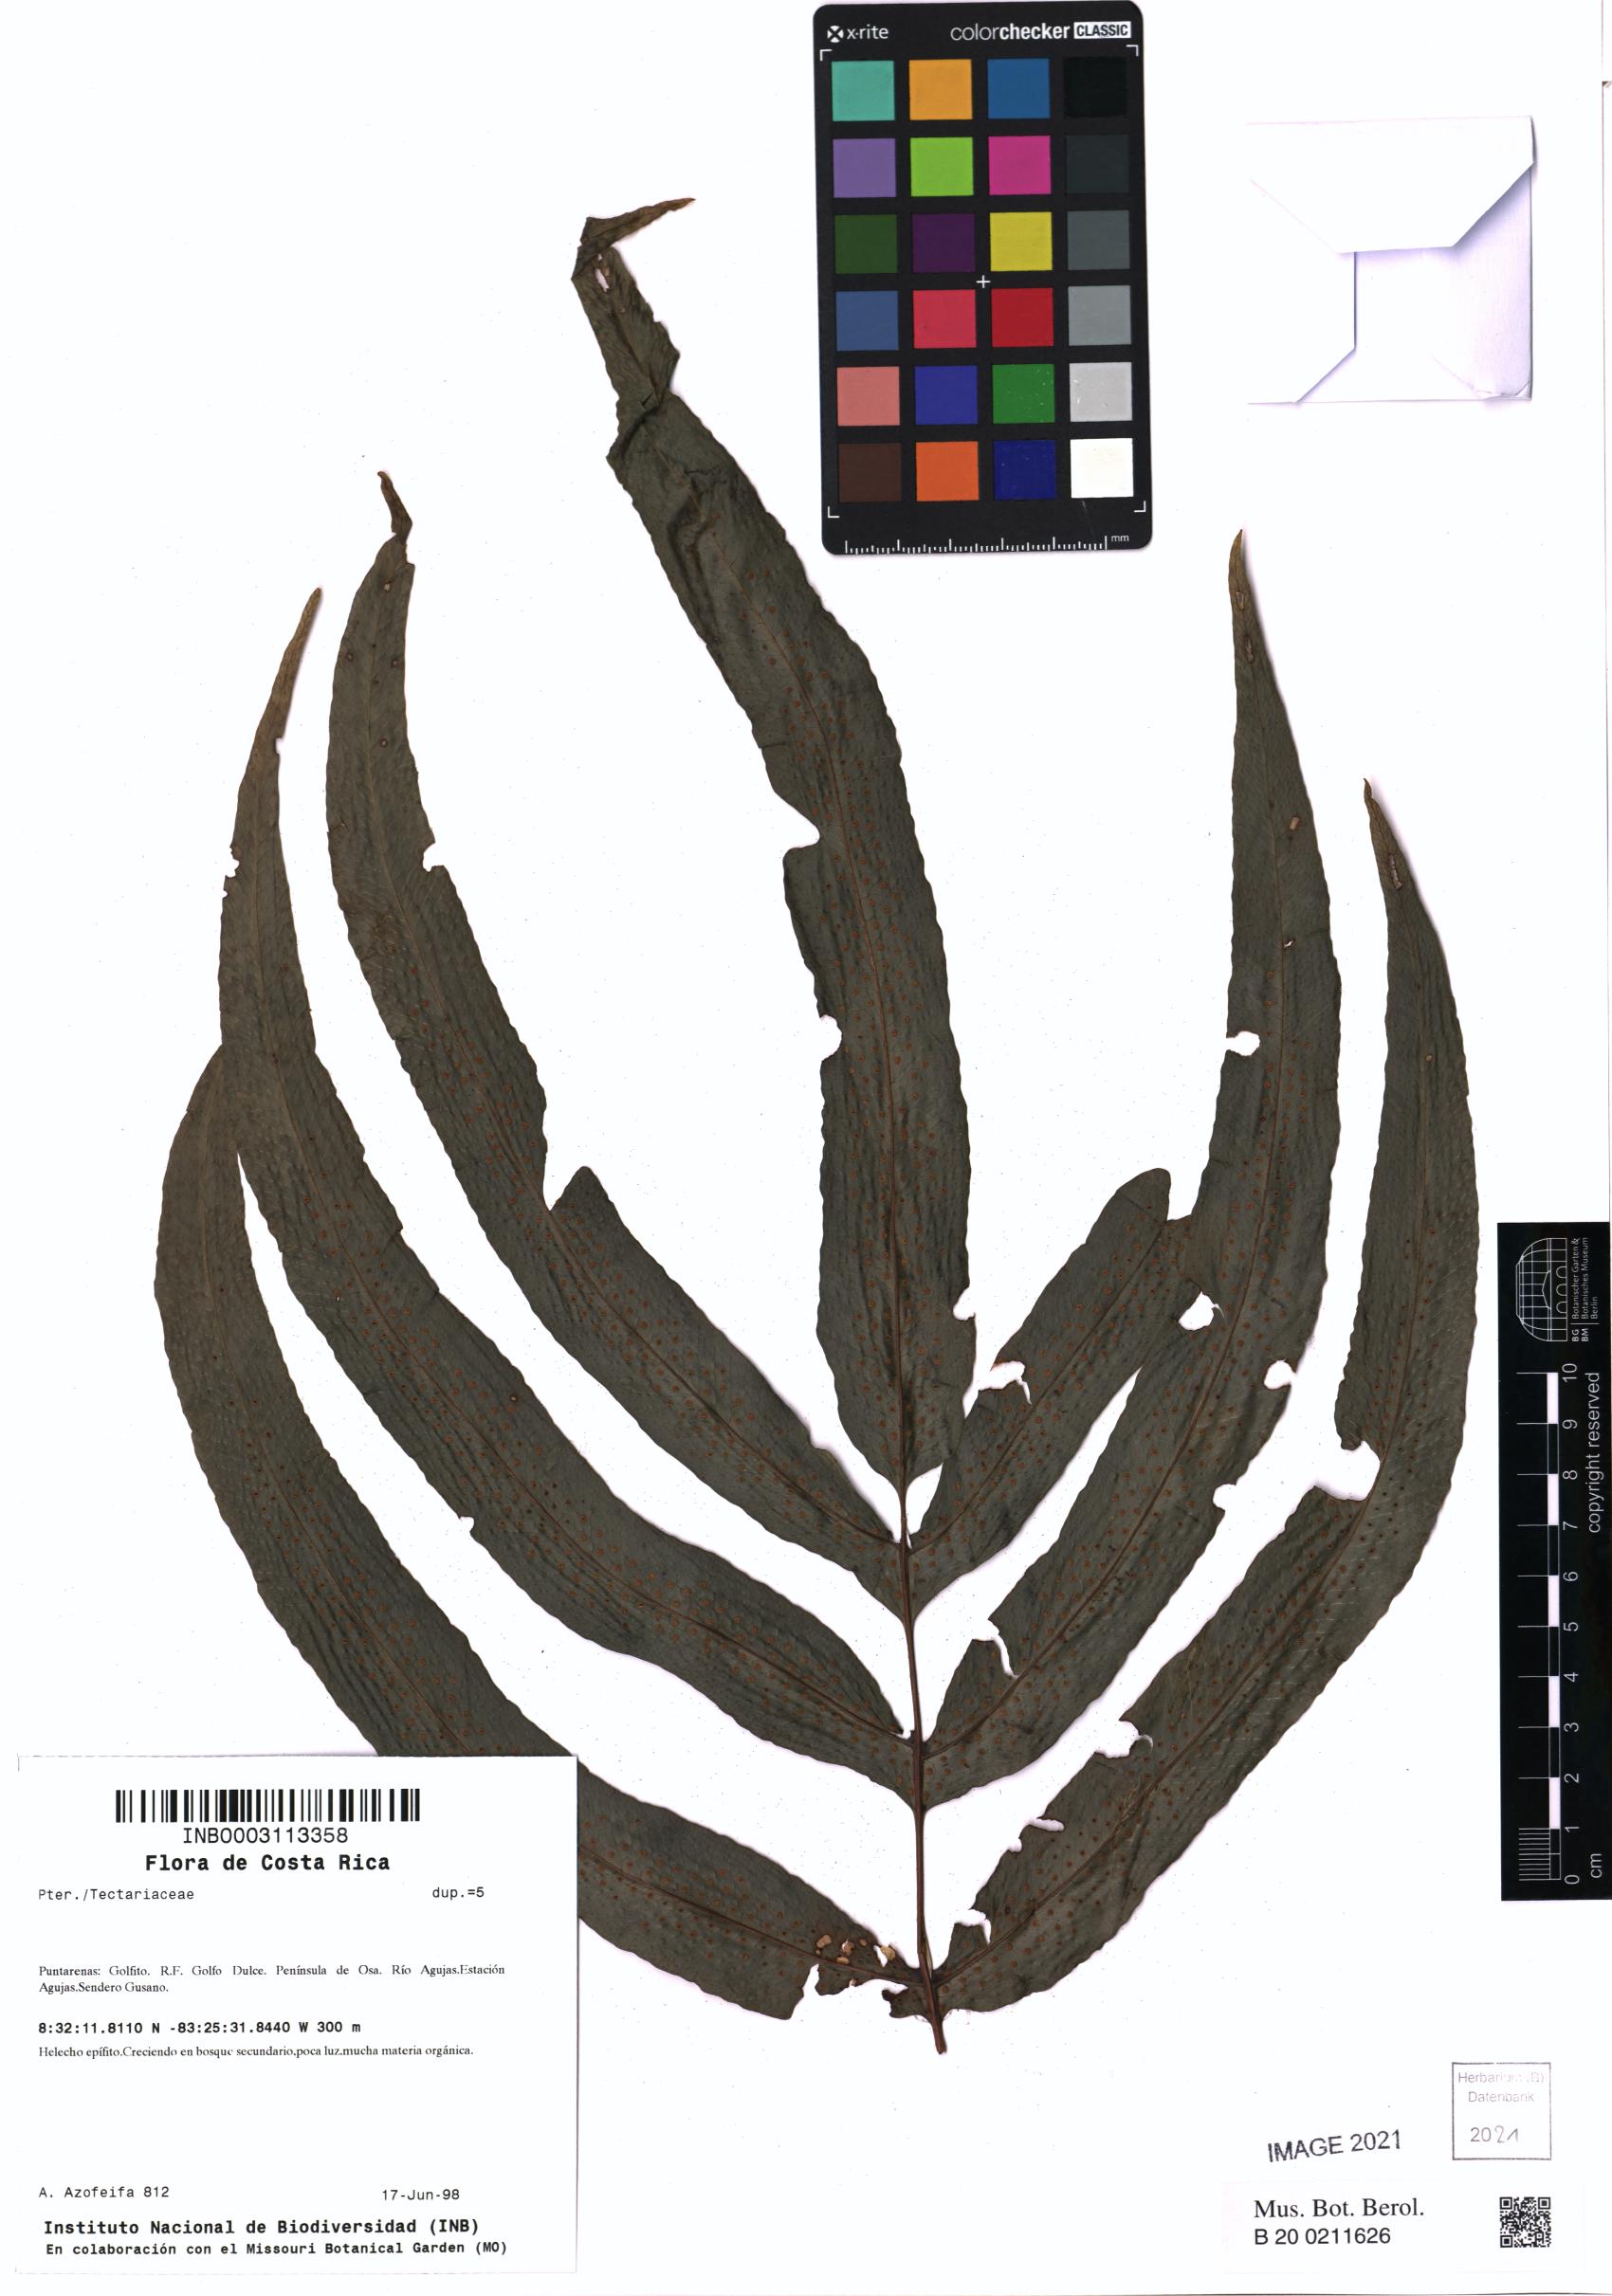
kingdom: Plantae
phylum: Tracheophyta
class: Polypodiopsida
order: Polypodiales
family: Tectariaceae
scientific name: Tectariaceae
